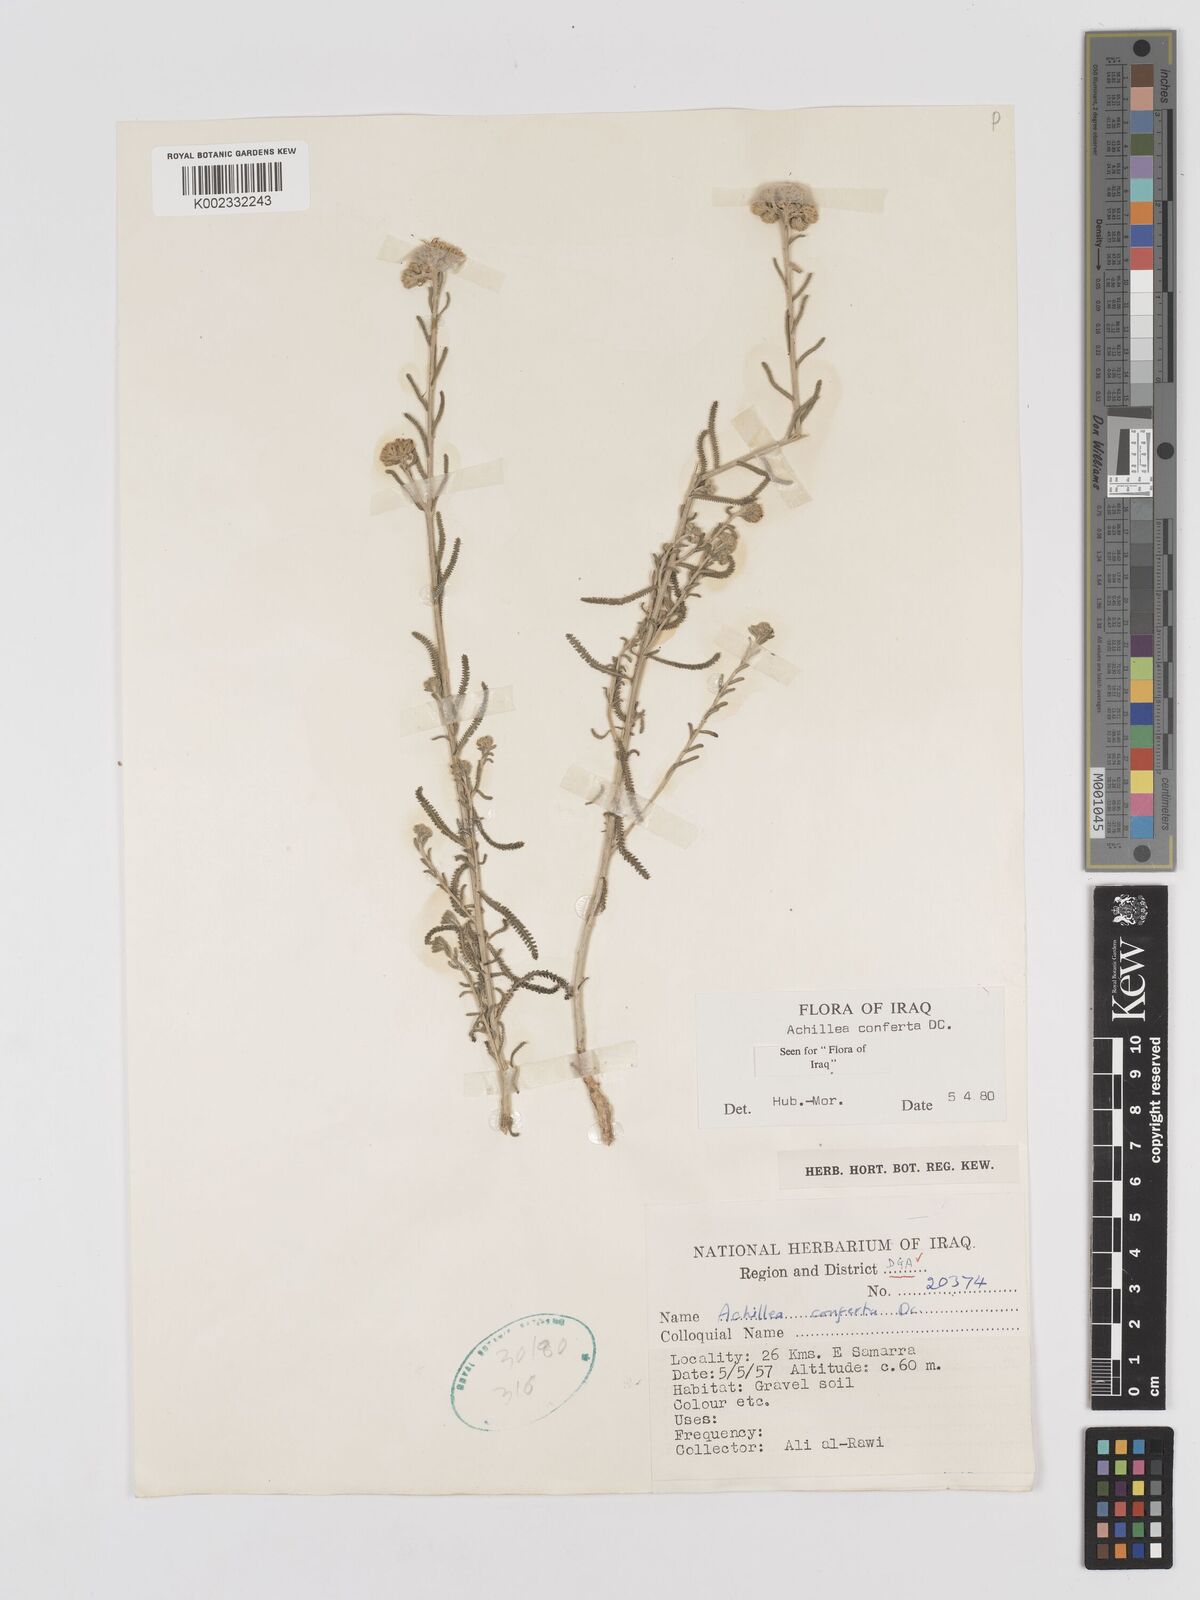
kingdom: Plantae
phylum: Tracheophyta
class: Magnoliopsida
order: Asterales
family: Asteraceae
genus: Achillea
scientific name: Achillea conferta
